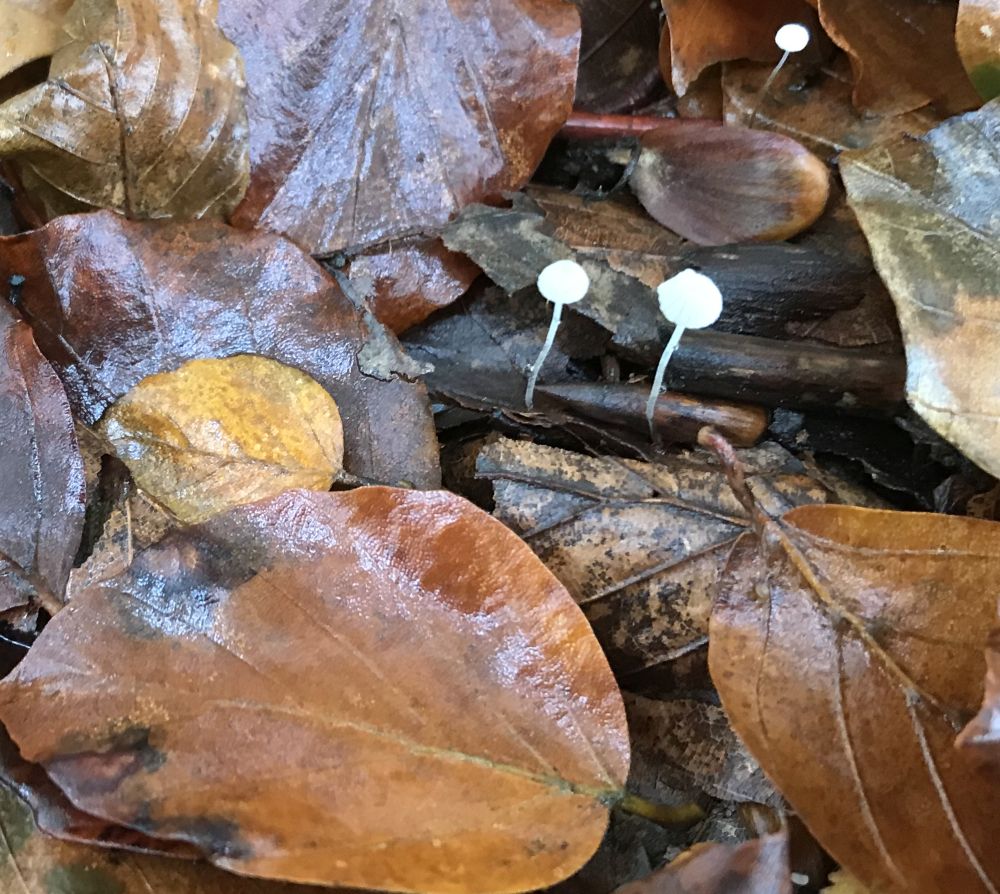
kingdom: Fungi
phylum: Basidiomycota
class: Agaricomycetes
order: Agaricales
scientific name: Agaricales
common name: champignonordenen
